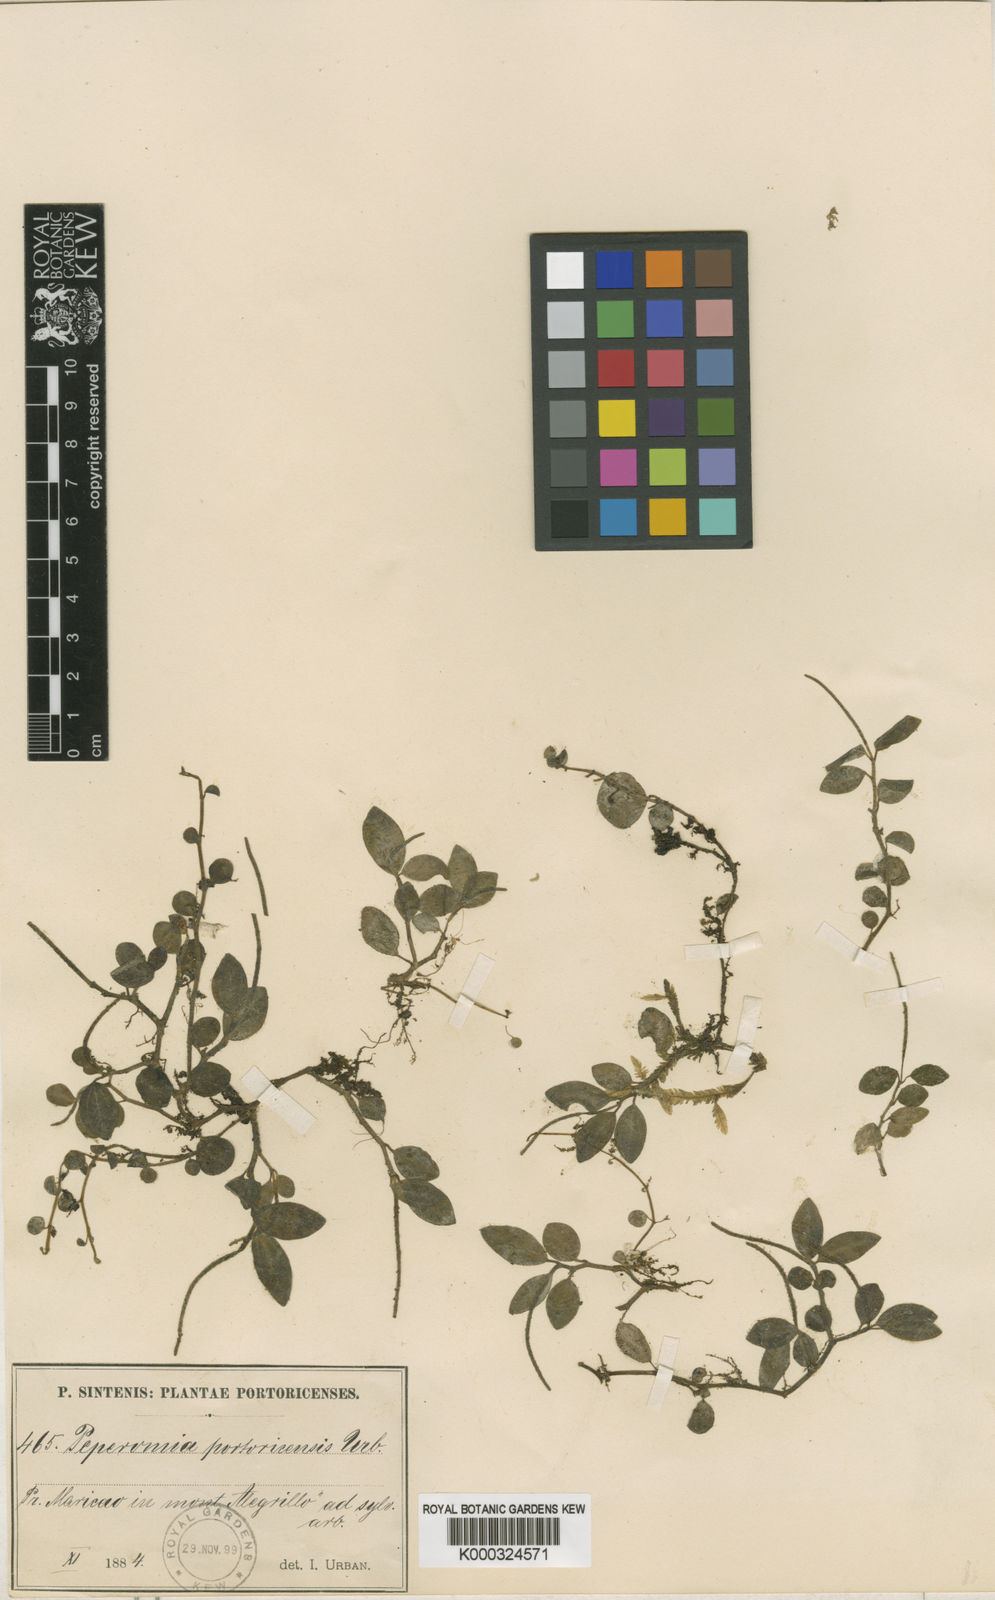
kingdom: Plantae
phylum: Tracheophyta
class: Magnoliopsida
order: Piperales
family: Piperaceae
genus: Peperomia
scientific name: Peperomia portoricensis
